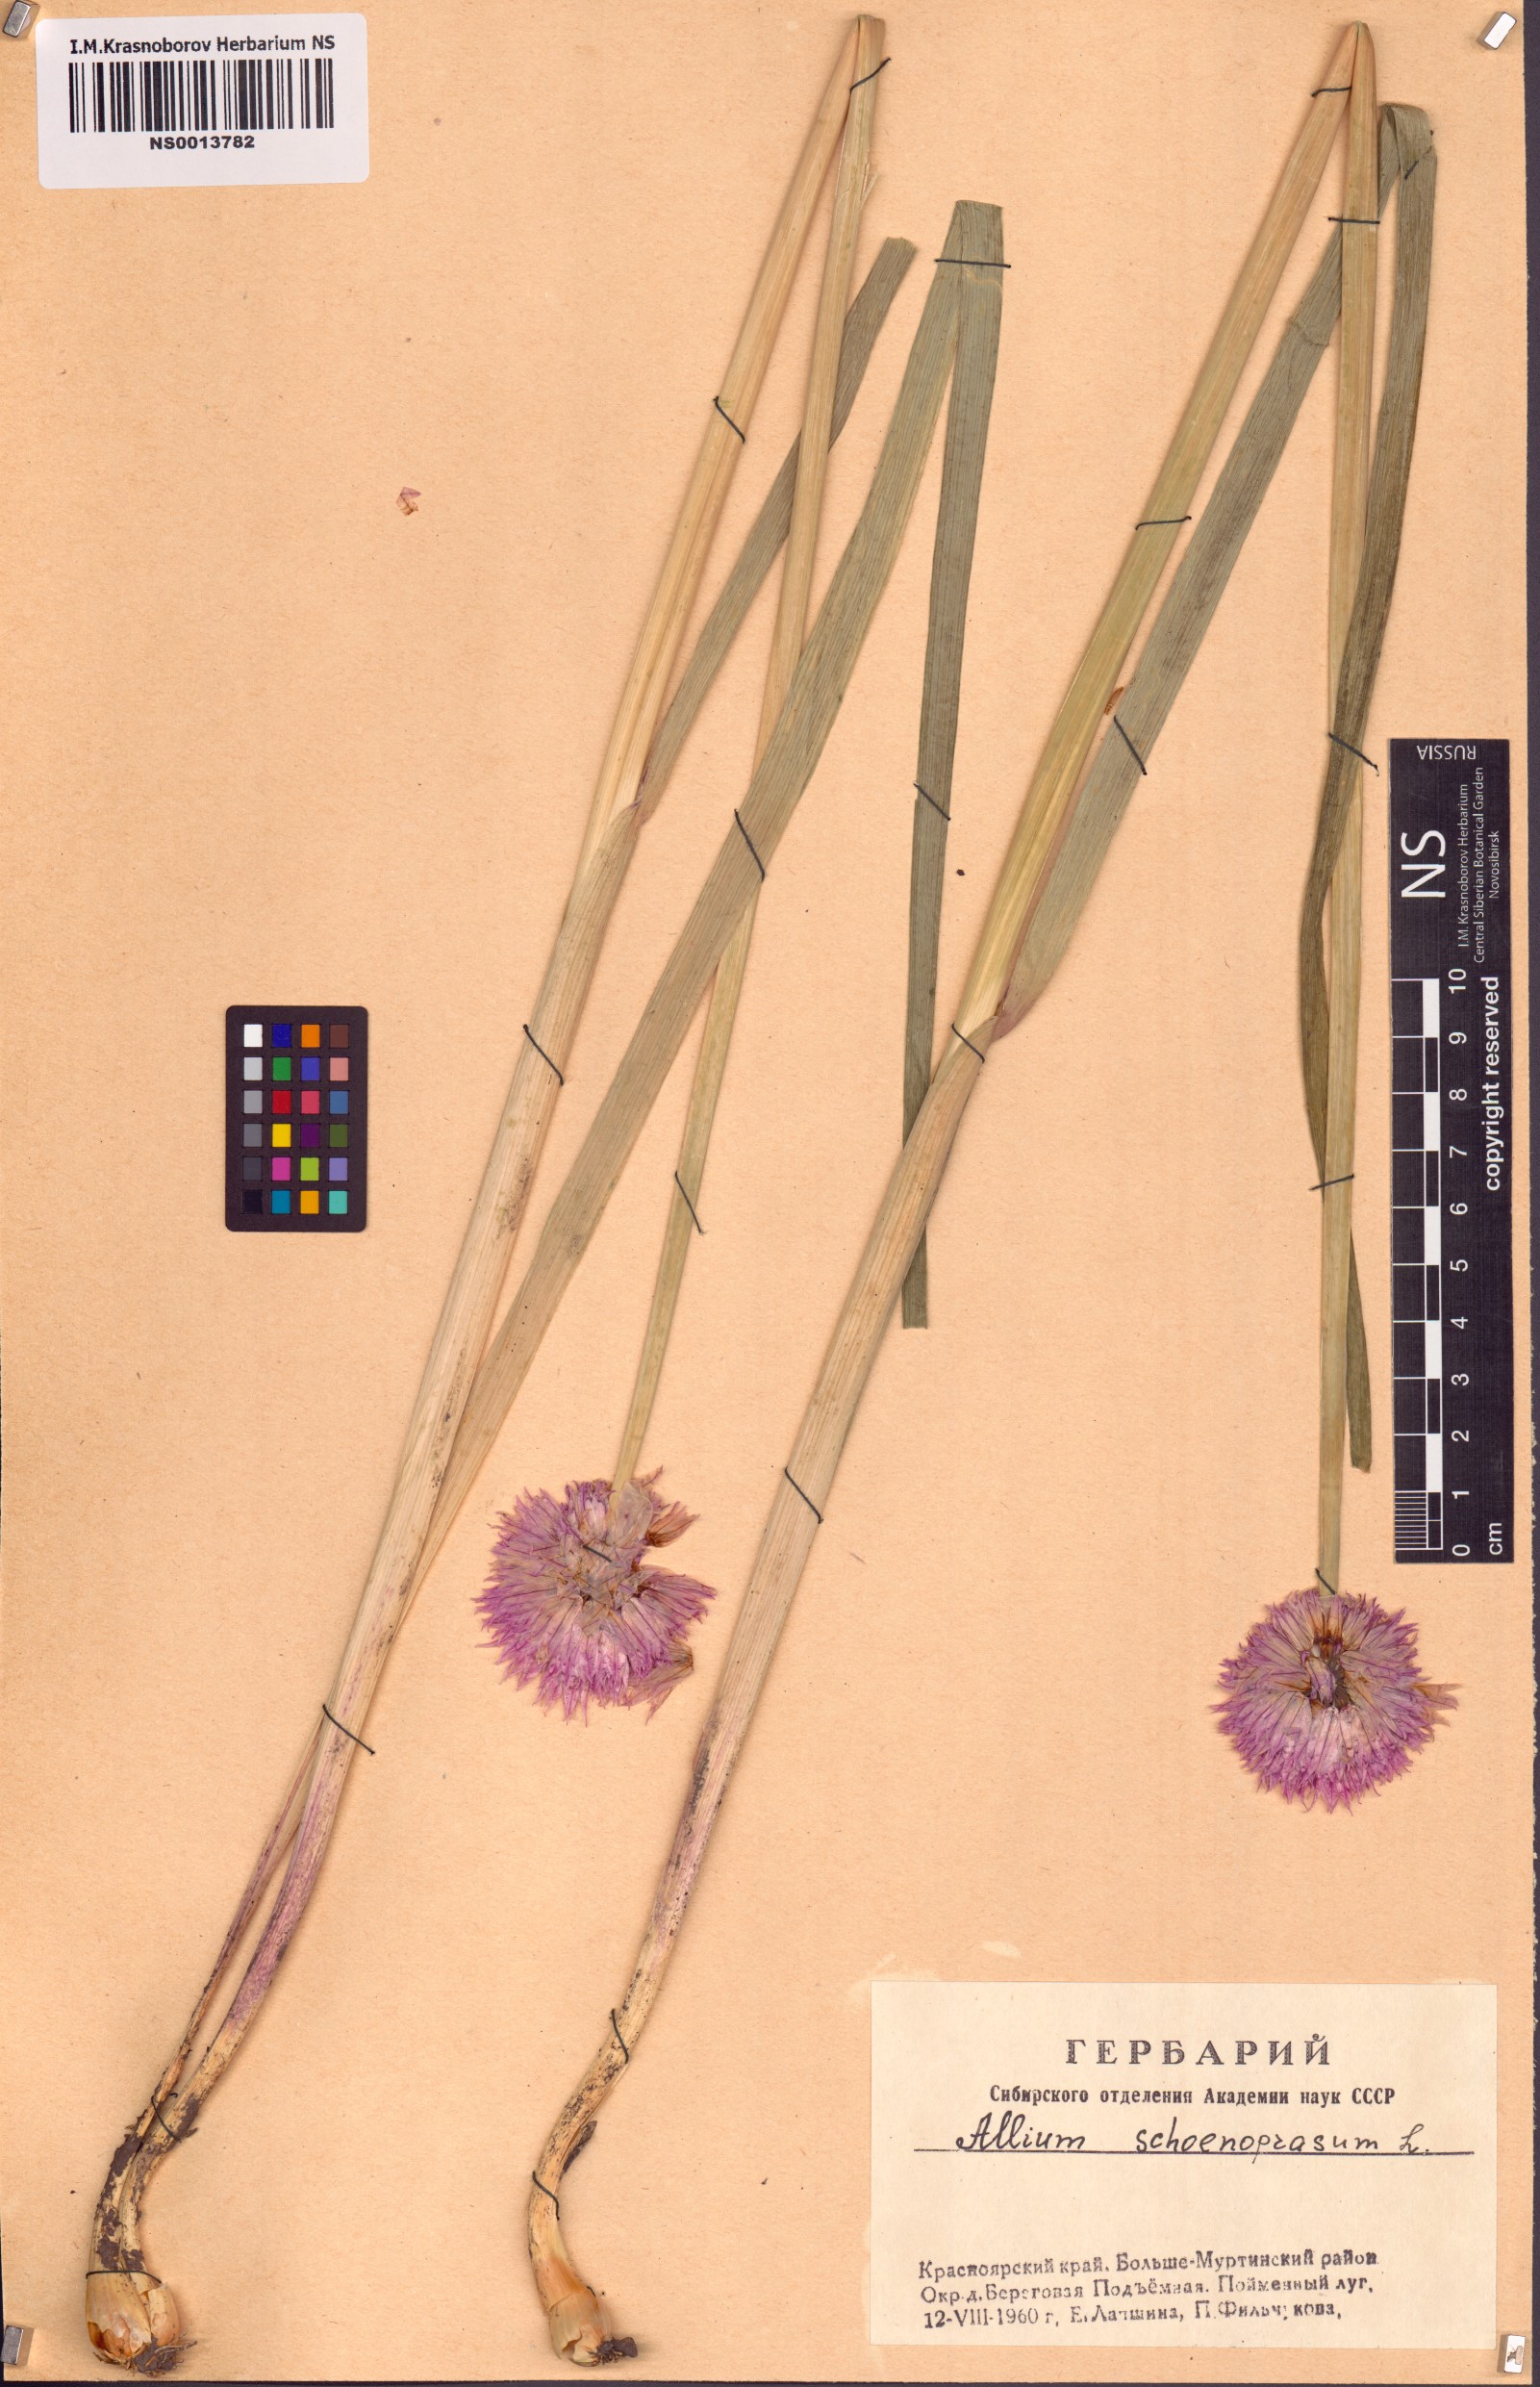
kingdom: Plantae
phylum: Tracheophyta
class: Liliopsida
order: Asparagales
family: Amaryllidaceae
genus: Allium
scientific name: Allium schoenoprasum
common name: Chives
